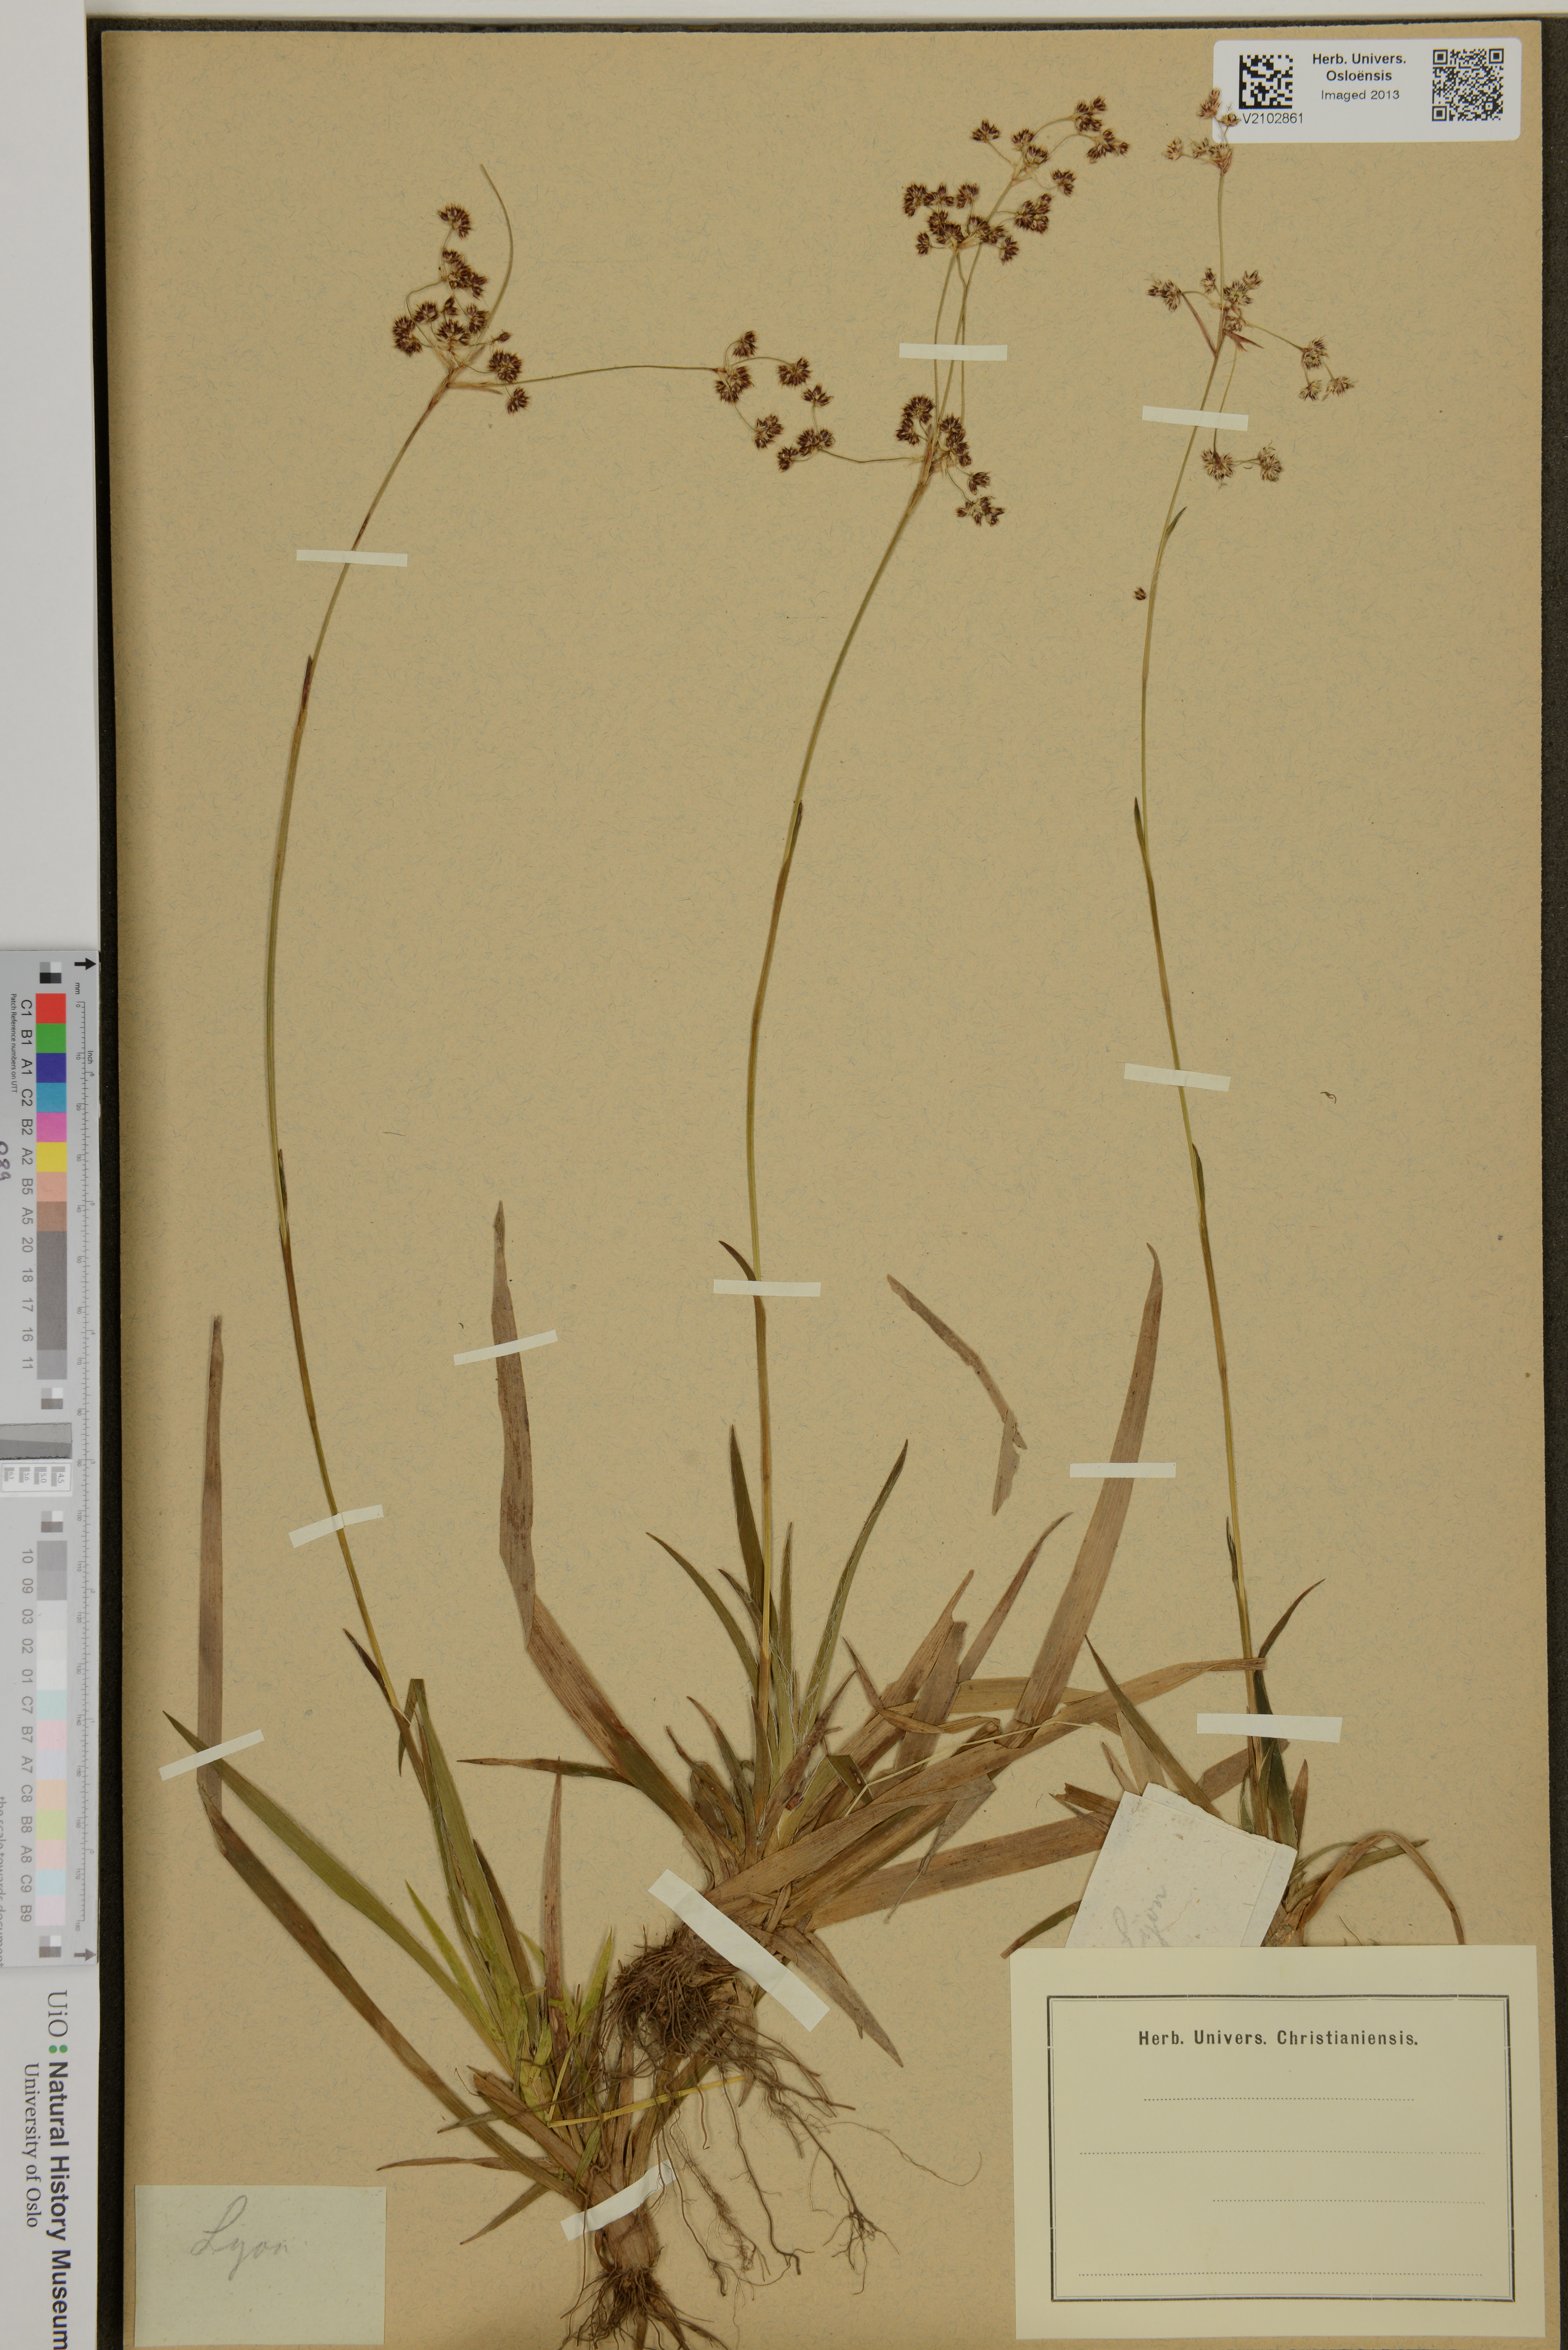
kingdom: Plantae
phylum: Tracheophyta
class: Liliopsida
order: Poales
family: Juncaceae
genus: Luzula
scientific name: Luzula
